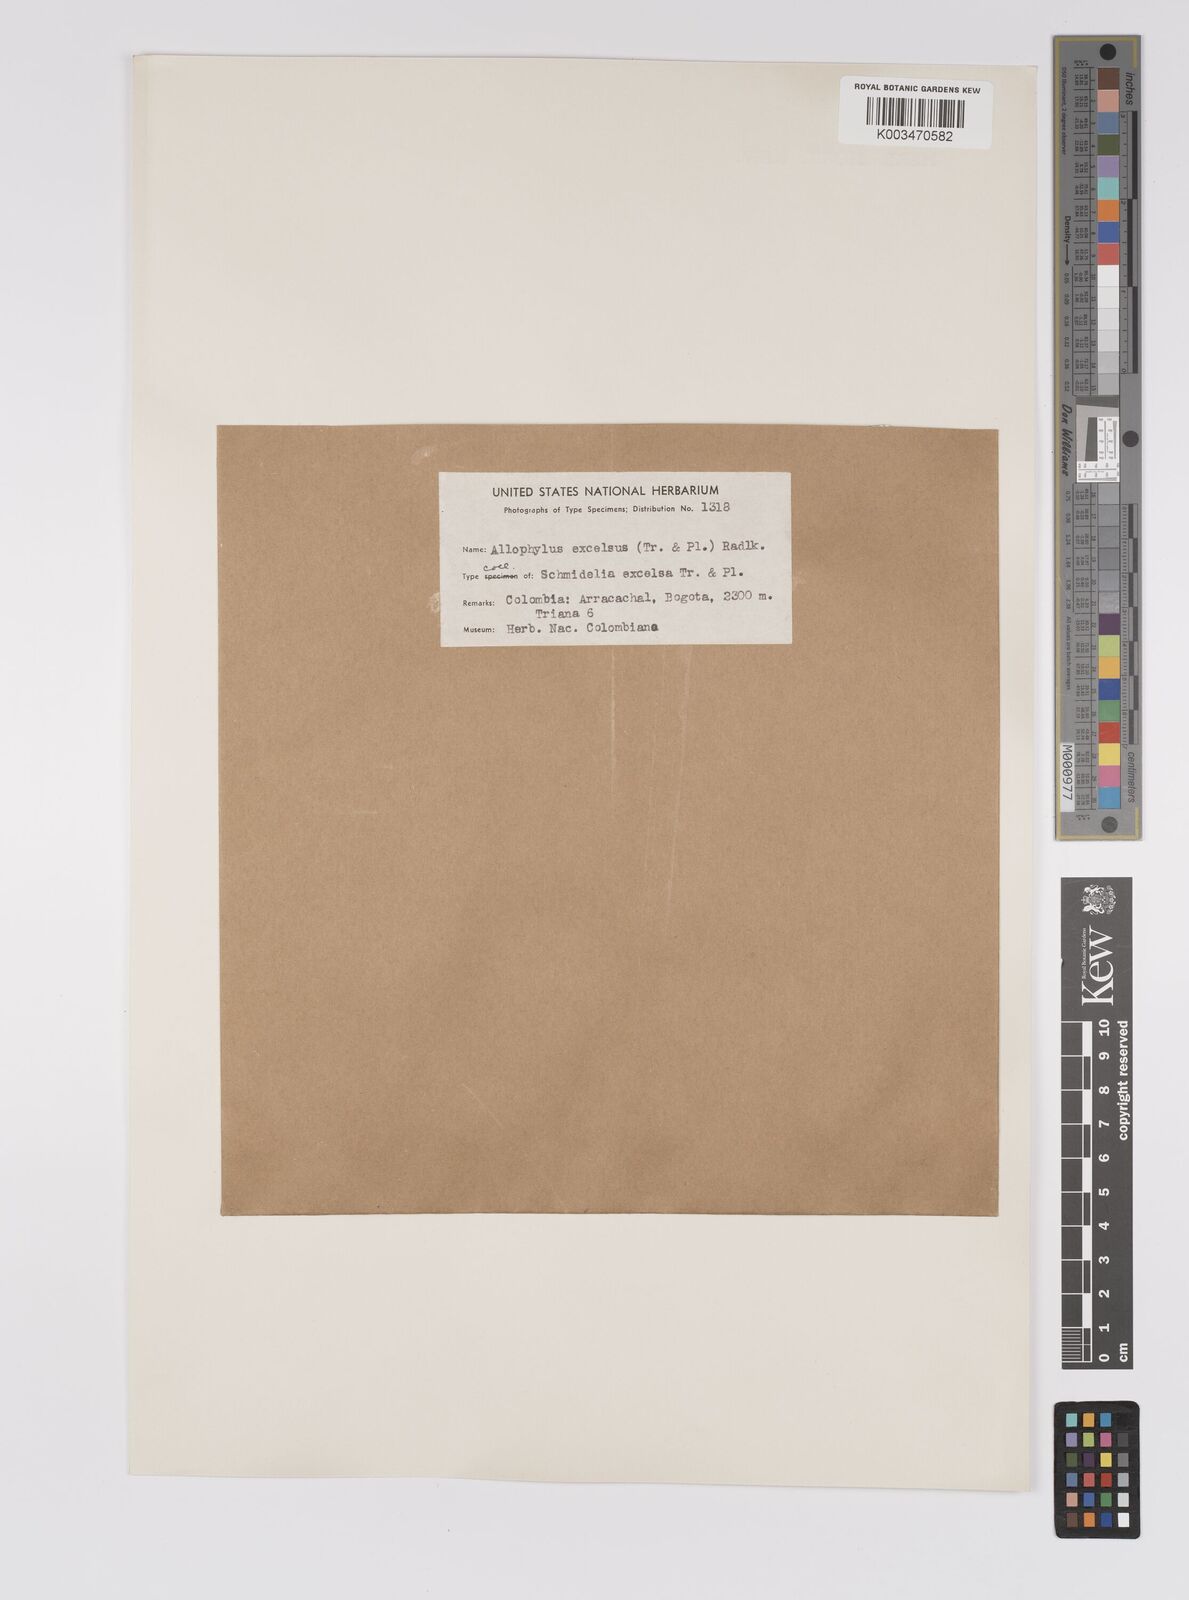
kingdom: Plantae
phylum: Tracheophyta
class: Magnoliopsida
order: Sapindales
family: Sapindaceae
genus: Allophylus
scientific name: Allophylus excelsus
